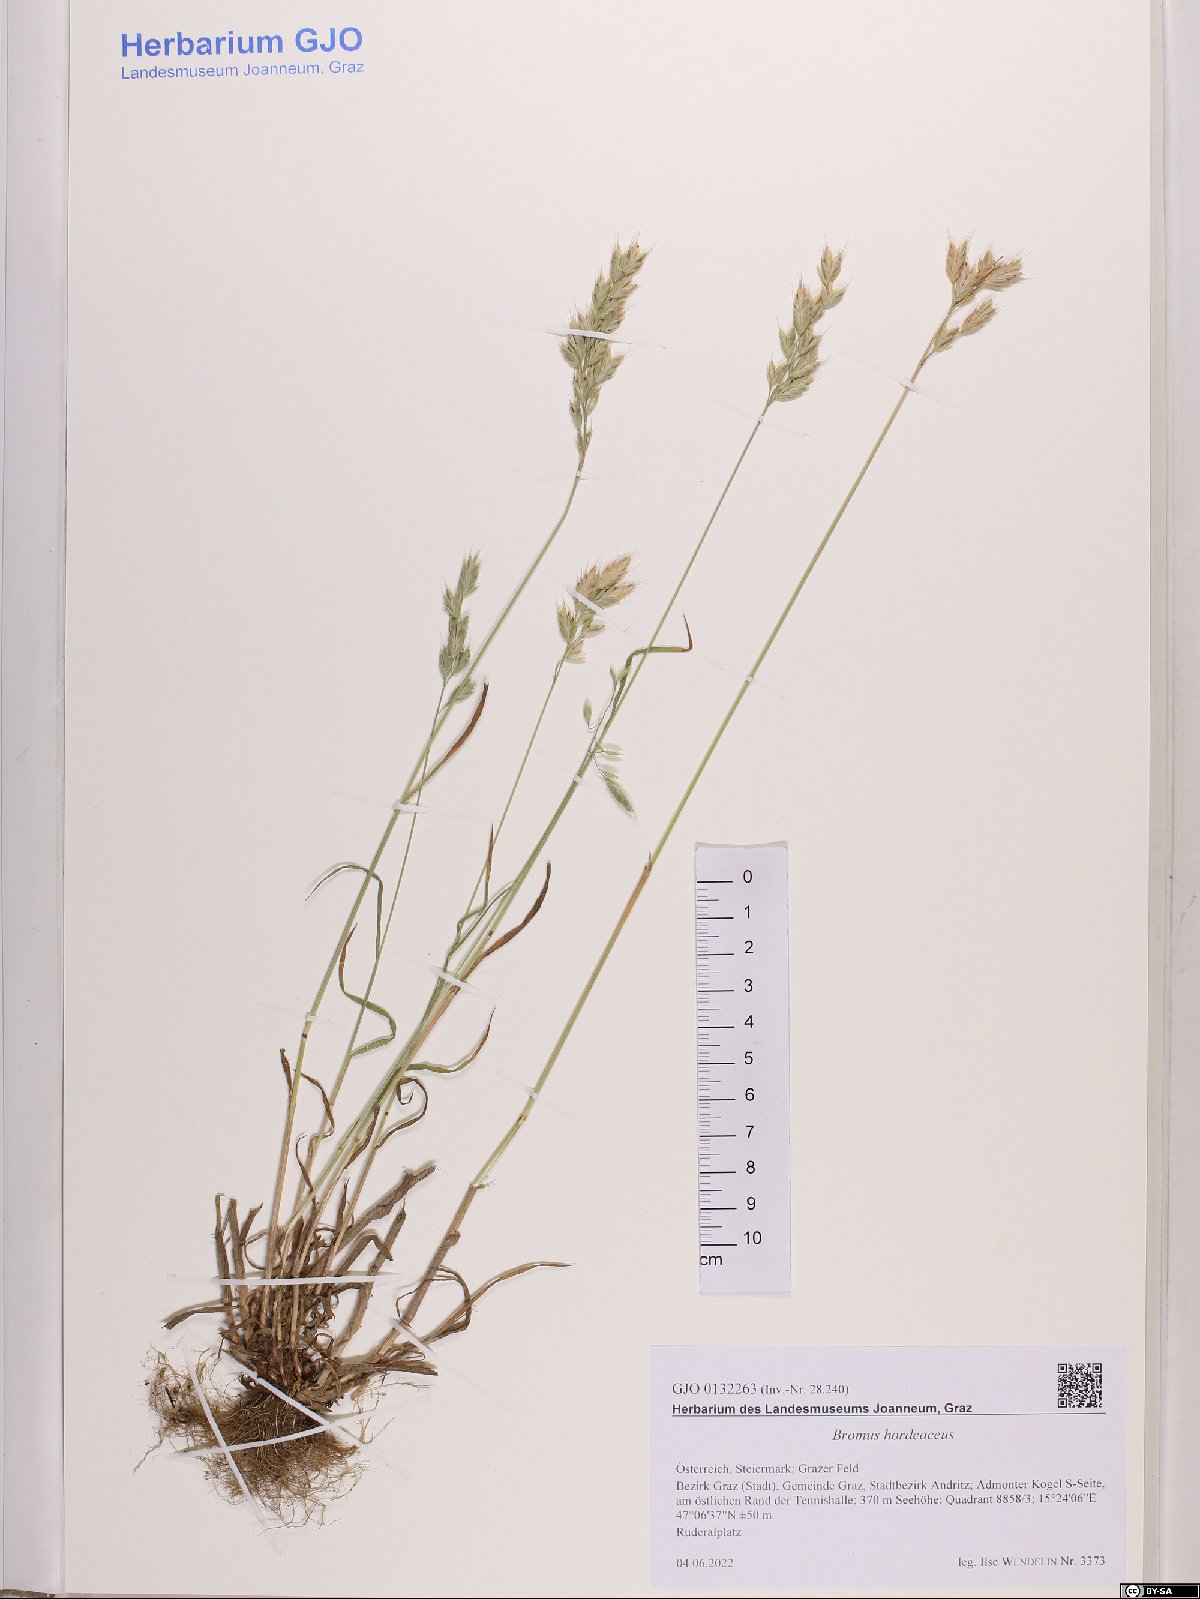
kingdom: Plantae
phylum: Tracheophyta
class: Liliopsida
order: Poales
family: Poaceae
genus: Bromus
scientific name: Bromus hordeaceus
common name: Soft brome
